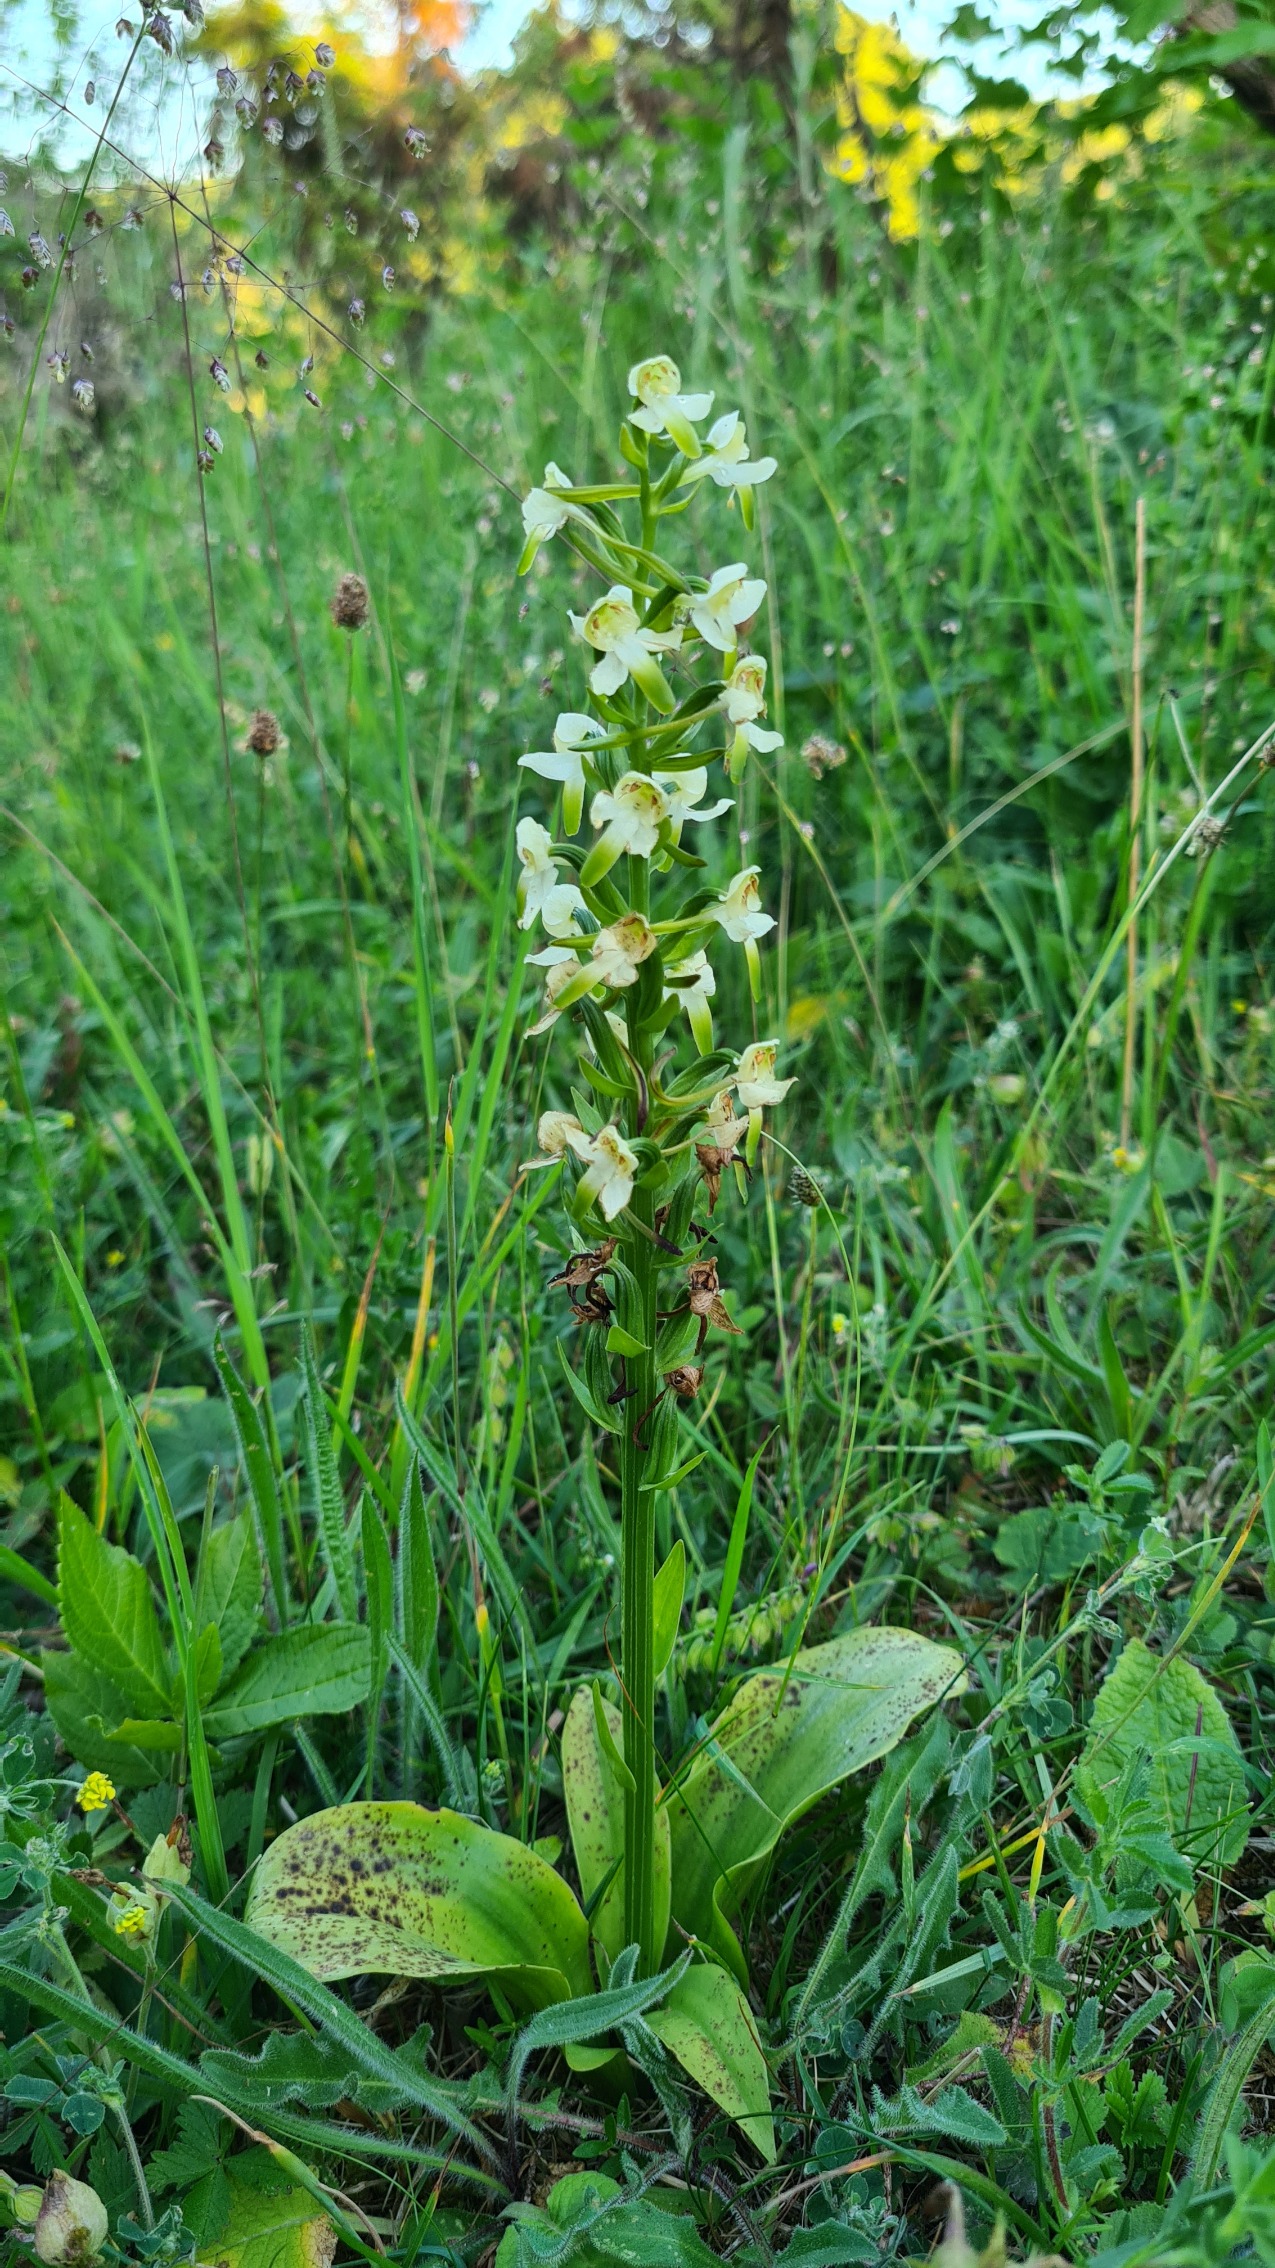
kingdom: Plantae
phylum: Tracheophyta
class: Liliopsida
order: Asparagales
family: Orchidaceae
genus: Platanthera
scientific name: Platanthera chlorantha
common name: Skov-gøgelilje
